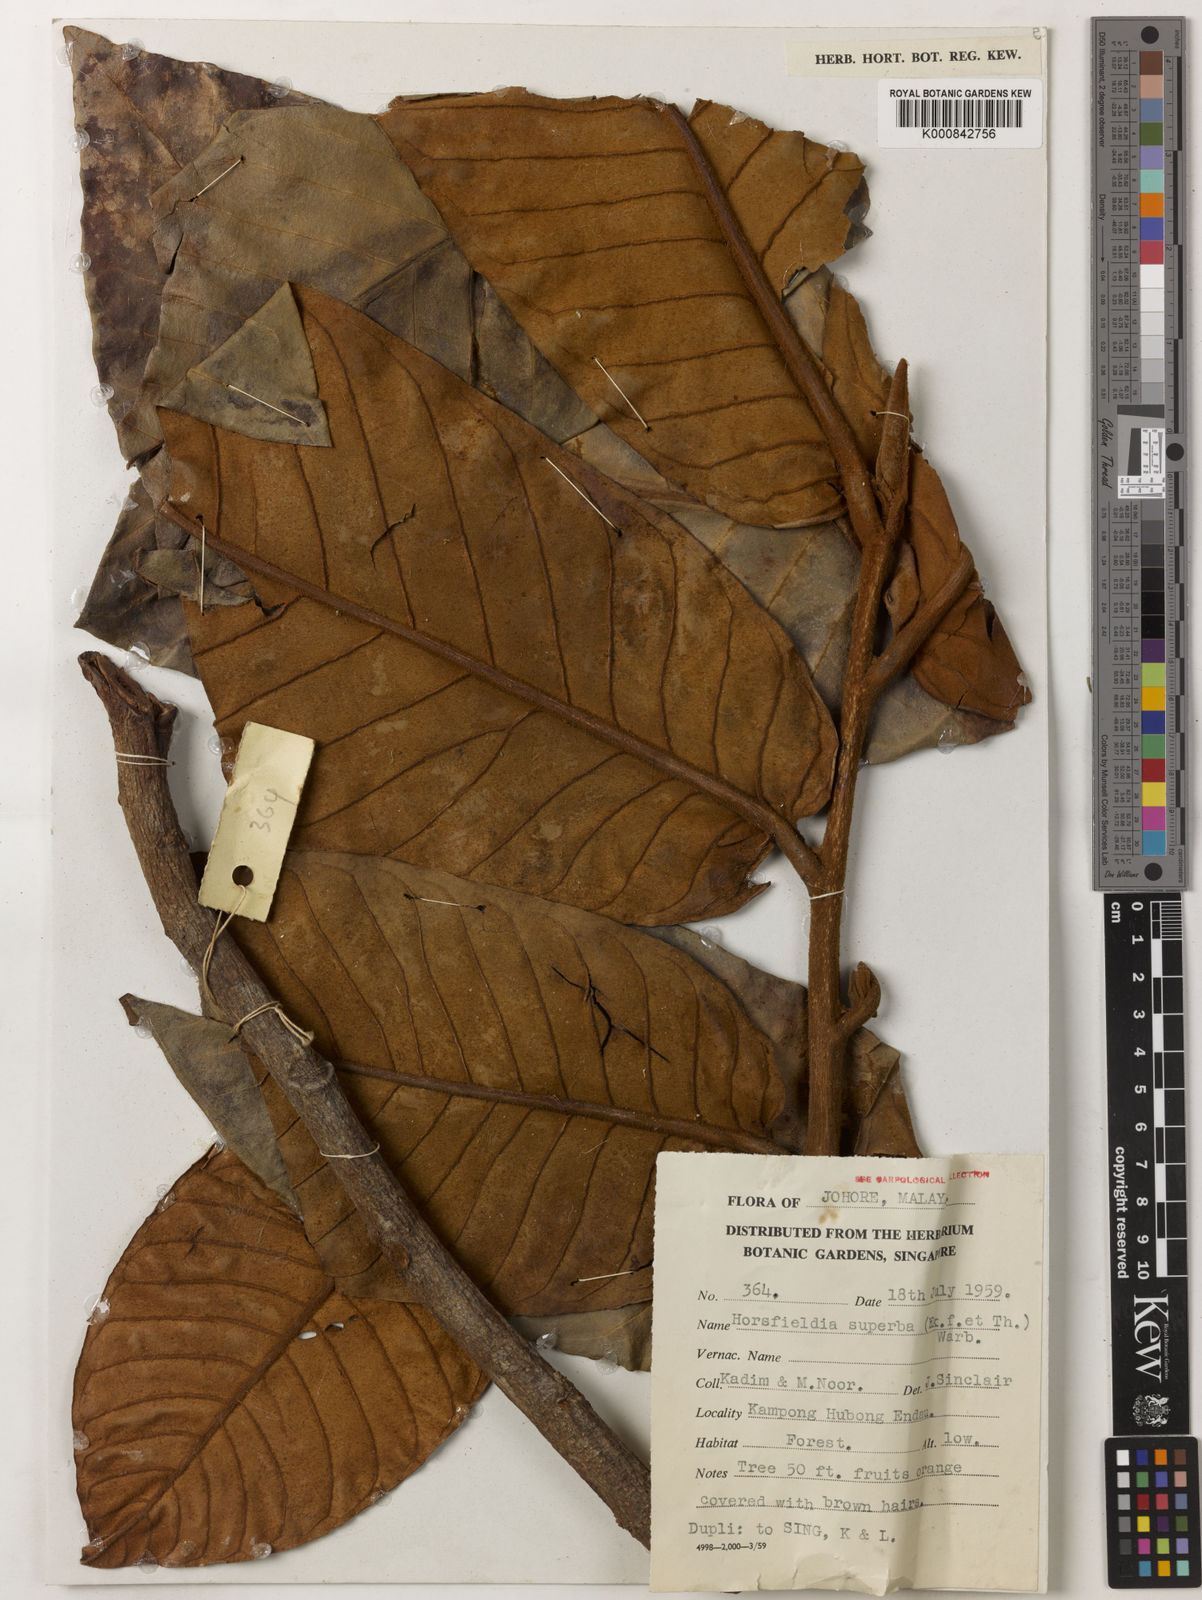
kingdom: Plantae
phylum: Tracheophyta
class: Magnoliopsida
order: Magnoliales
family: Myristicaceae
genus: Horsfieldia
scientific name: Horsfieldia superba
